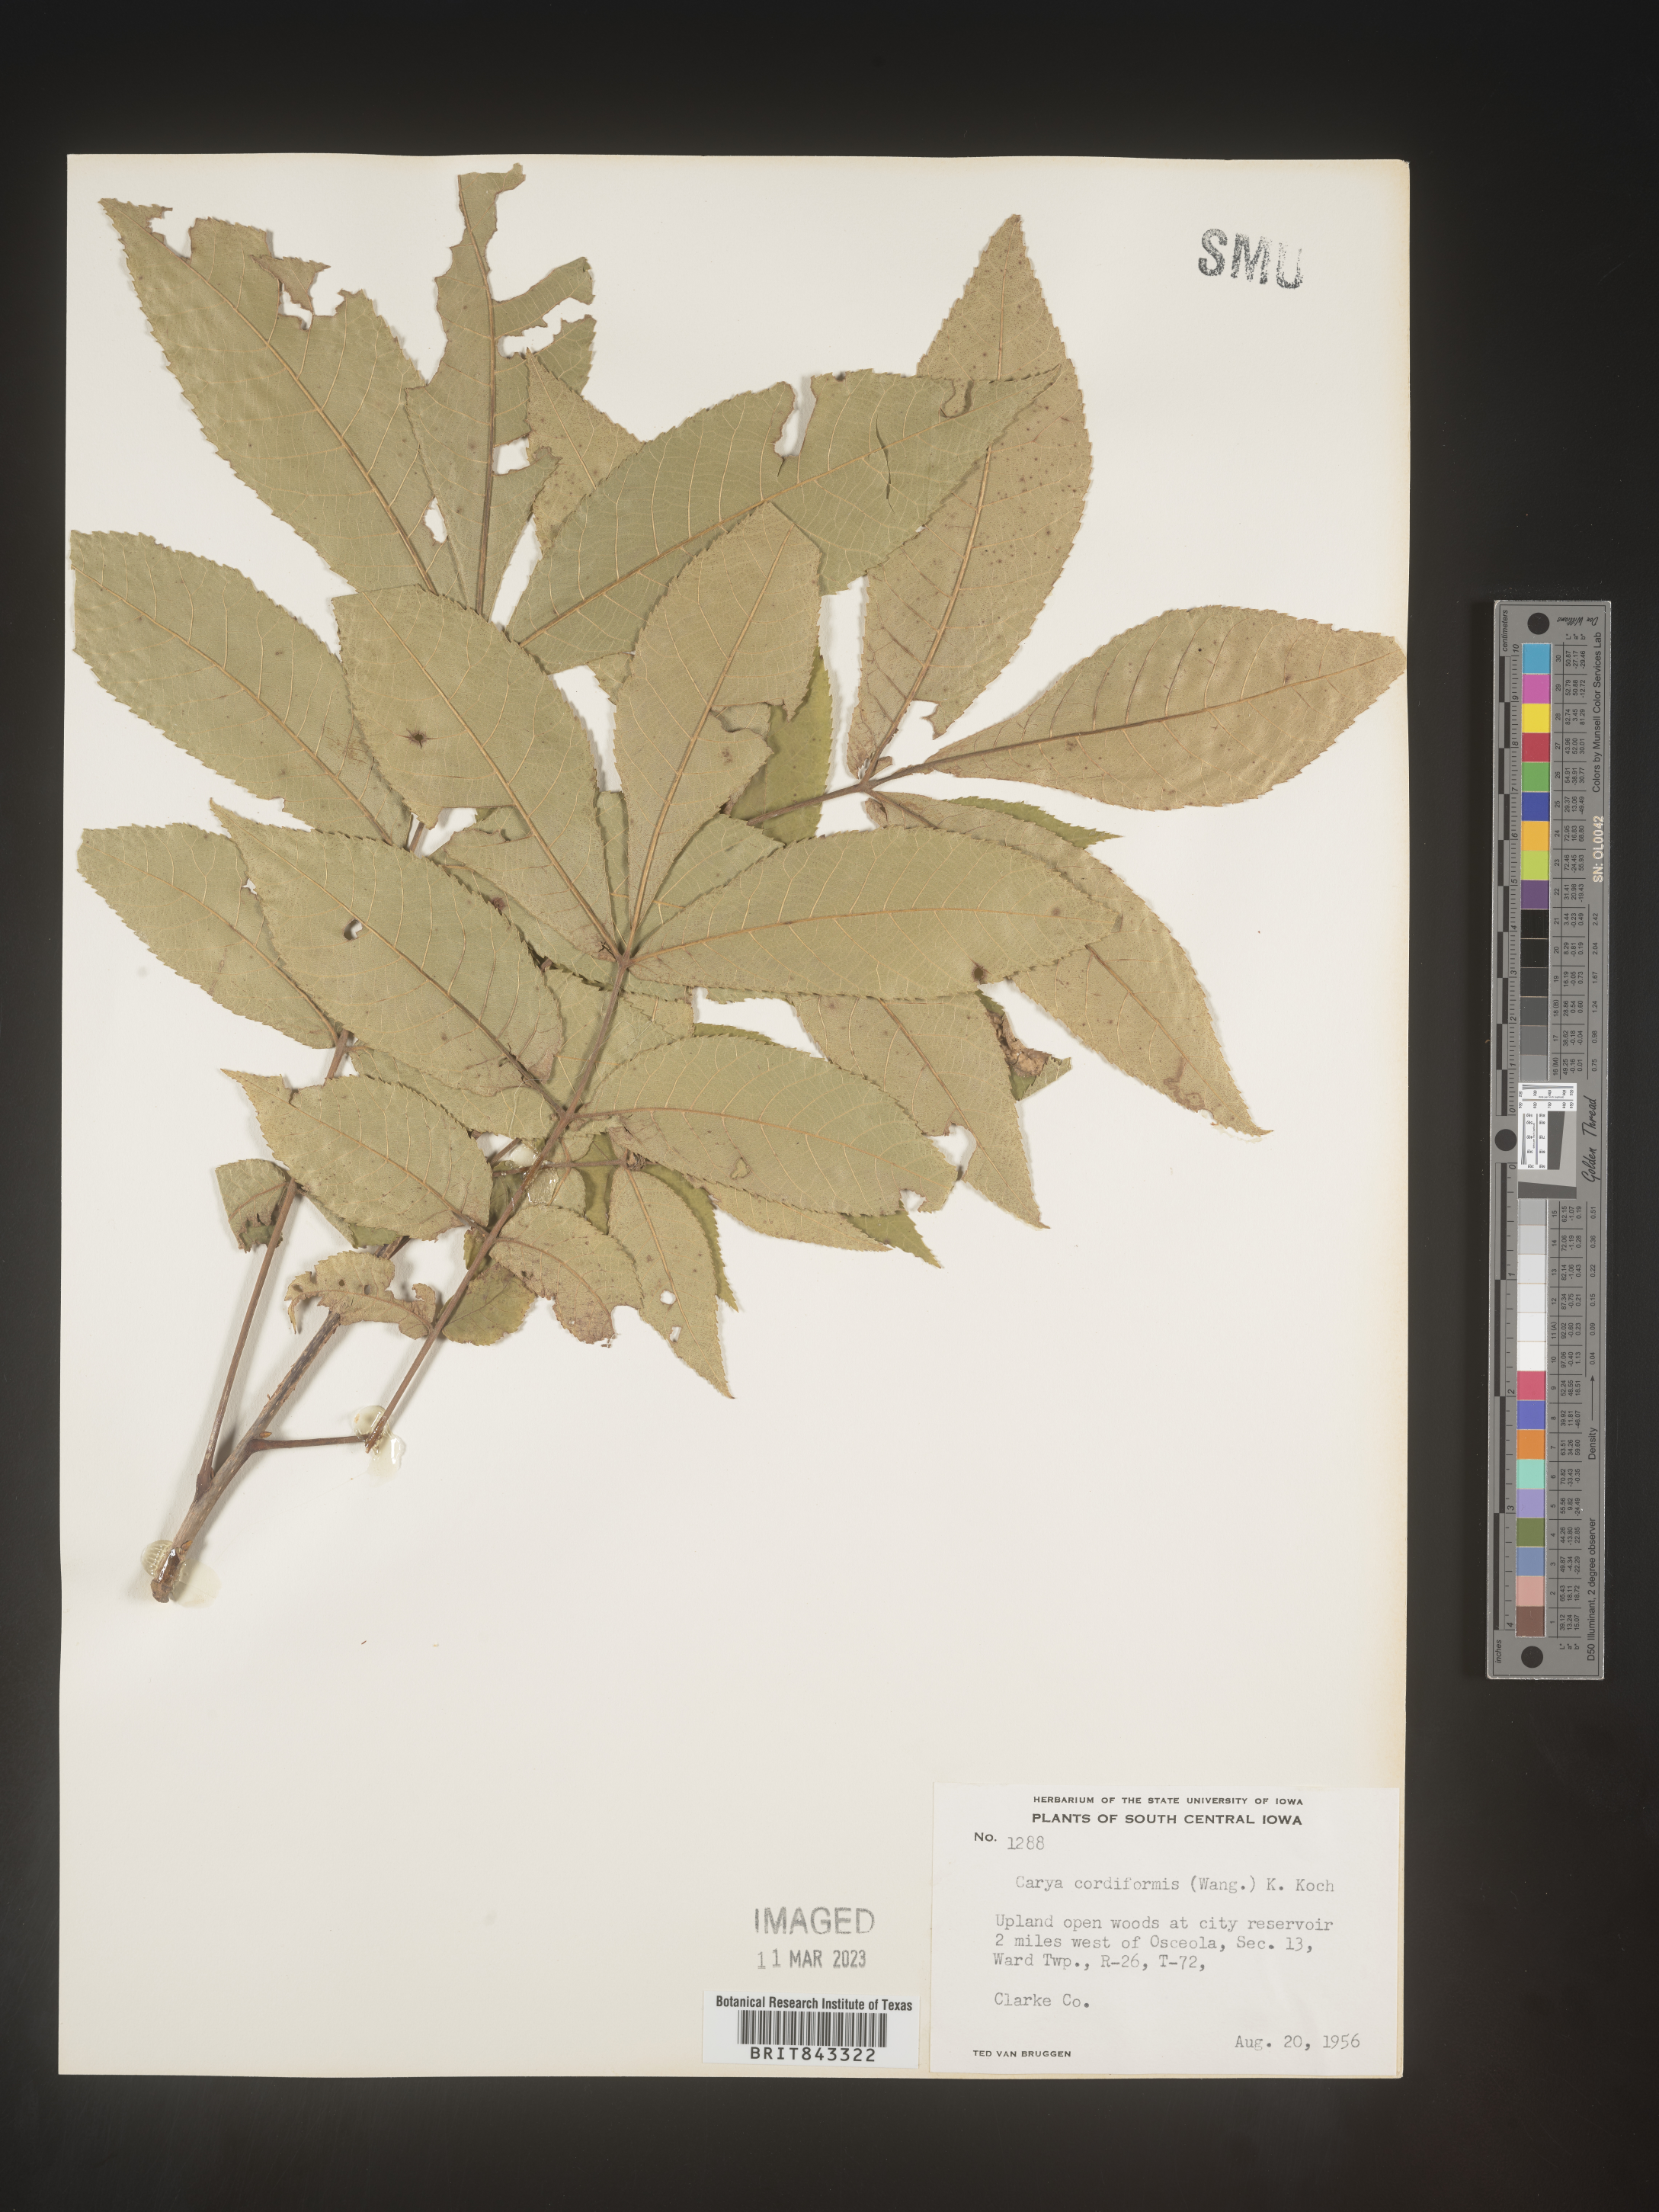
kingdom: Plantae
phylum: Tracheophyta
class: Magnoliopsida
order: Fagales
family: Juglandaceae
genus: Carya
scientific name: Carya cordiformis
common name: Bitternut hickory
